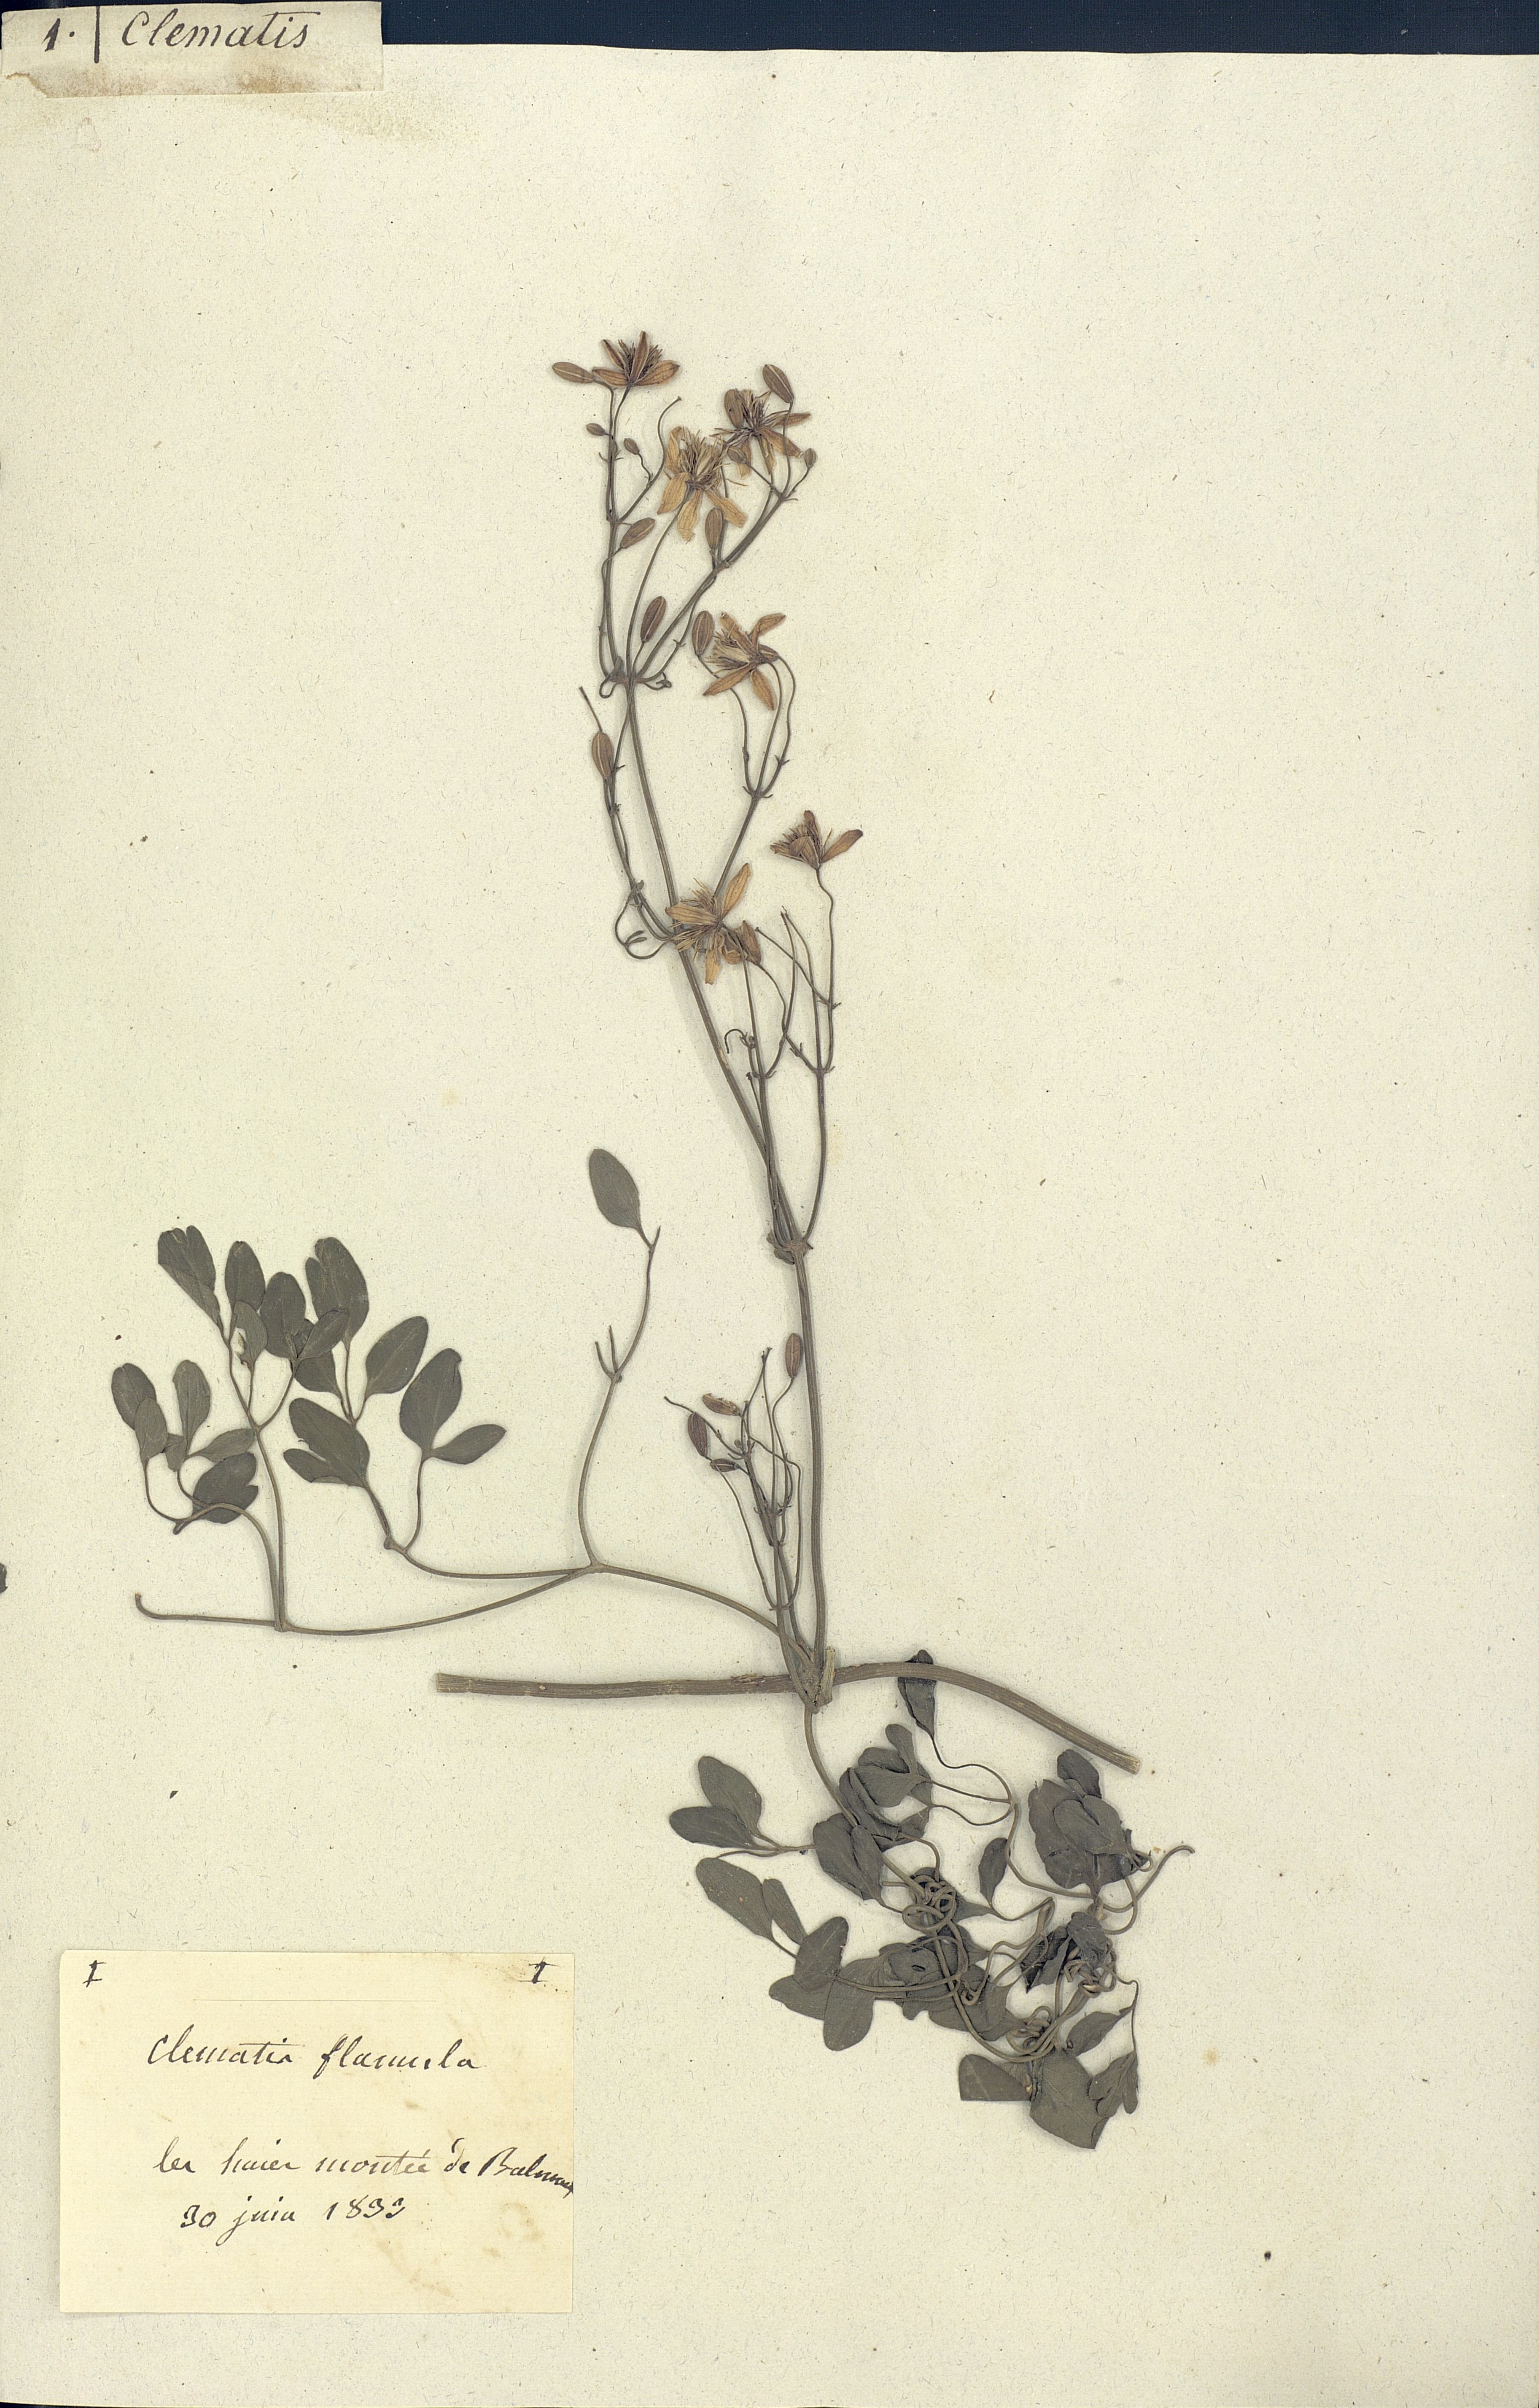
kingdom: Plantae
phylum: Tracheophyta
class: Magnoliopsida
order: Ranunculales
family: Ranunculaceae
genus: Clematis
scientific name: Clematis flammula
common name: Virgin's-bower
